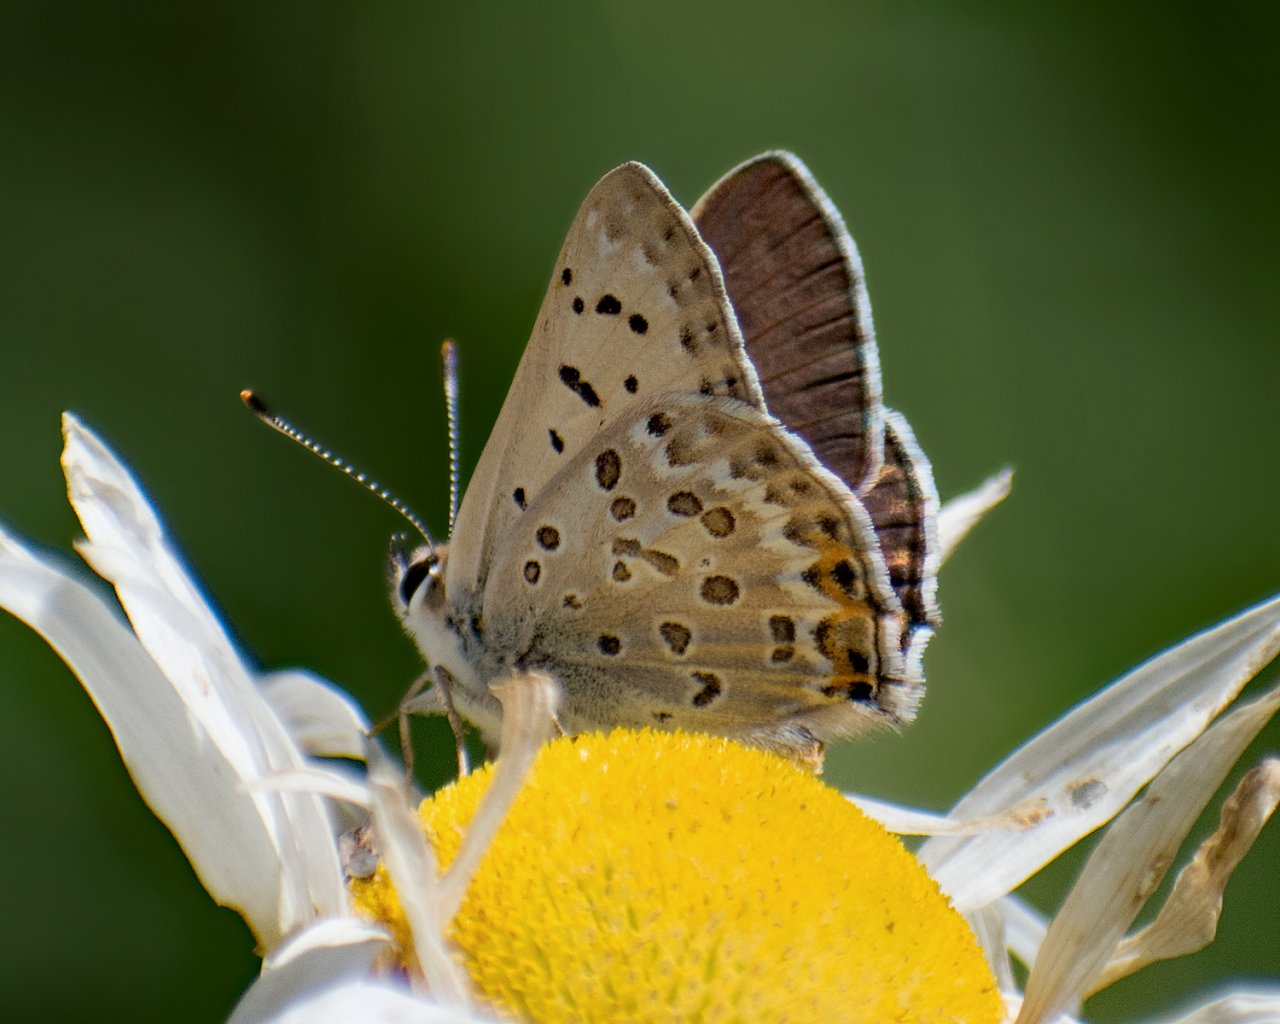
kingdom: Animalia
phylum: Arthropoda
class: Insecta
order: Lepidoptera
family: Lycaenidae
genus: Lycaena
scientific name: Lycaena editha
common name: Edith's Copper
